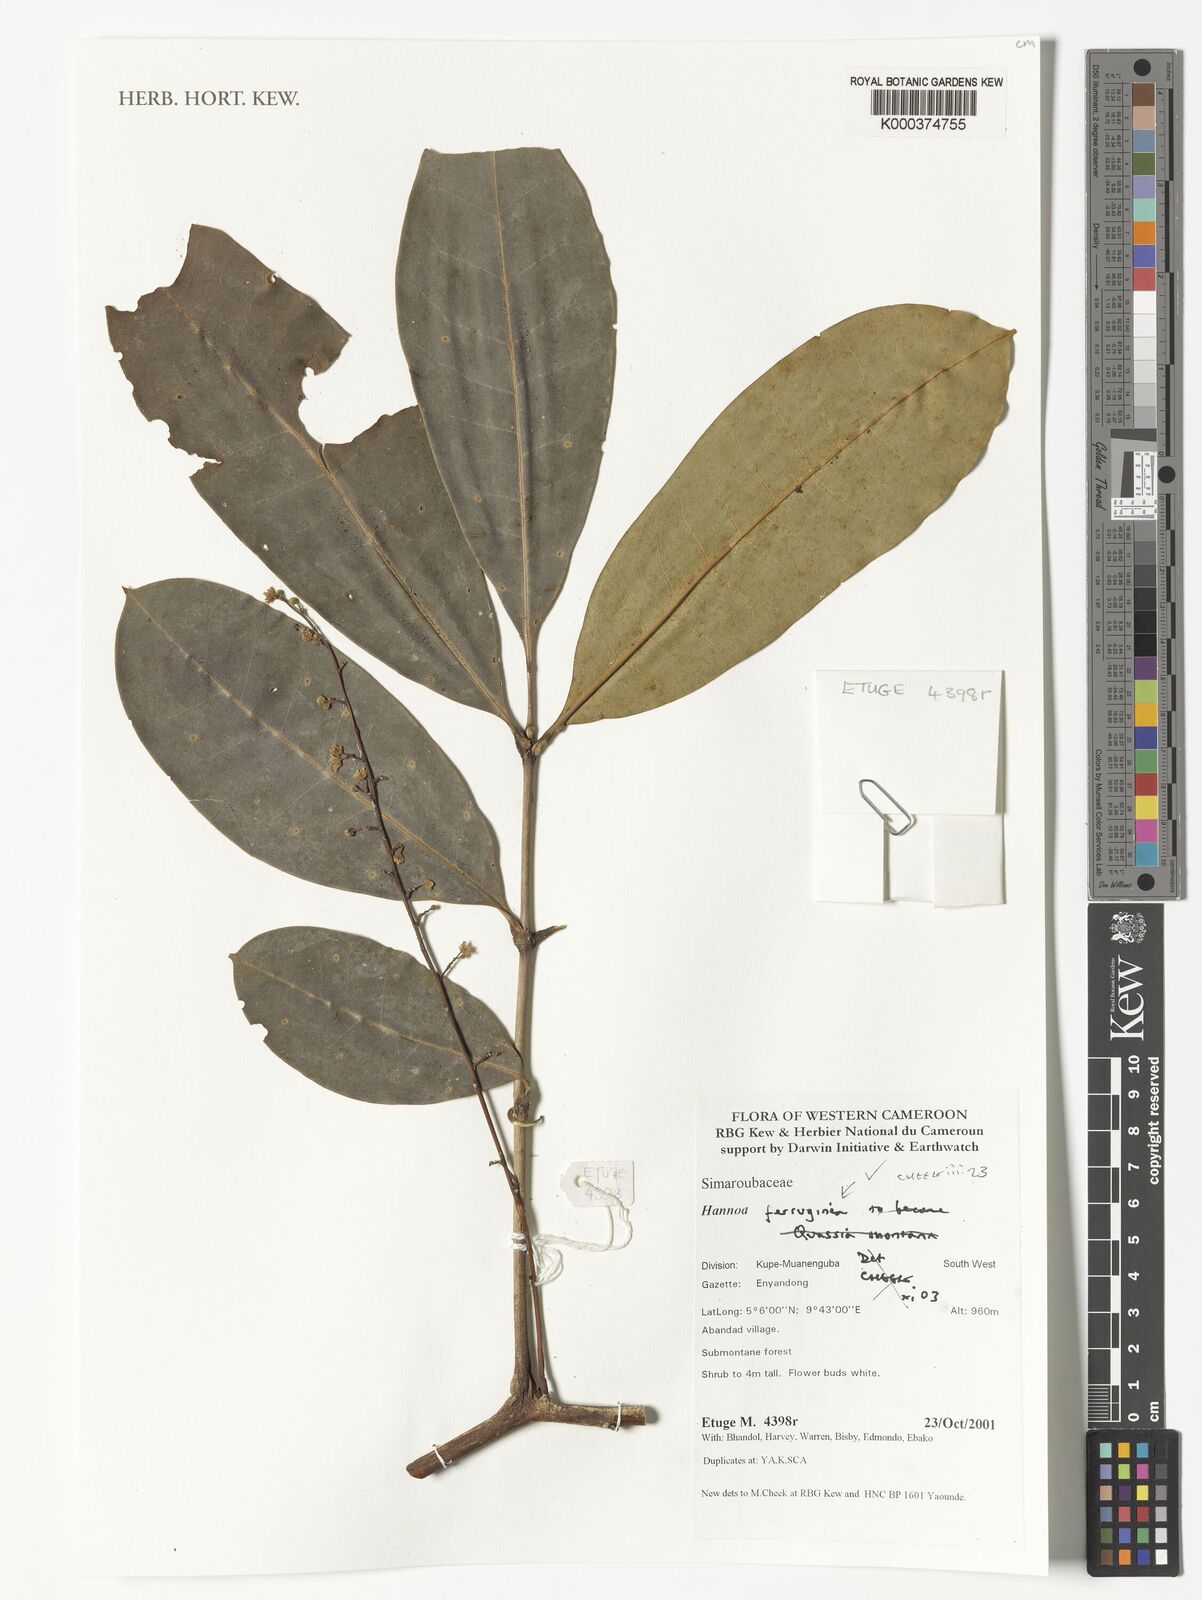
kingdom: Plantae
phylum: Tracheophyta
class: Magnoliopsida
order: Sapindales
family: Simaroubaceae
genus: Hannoa
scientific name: Hannoa ferruginea
